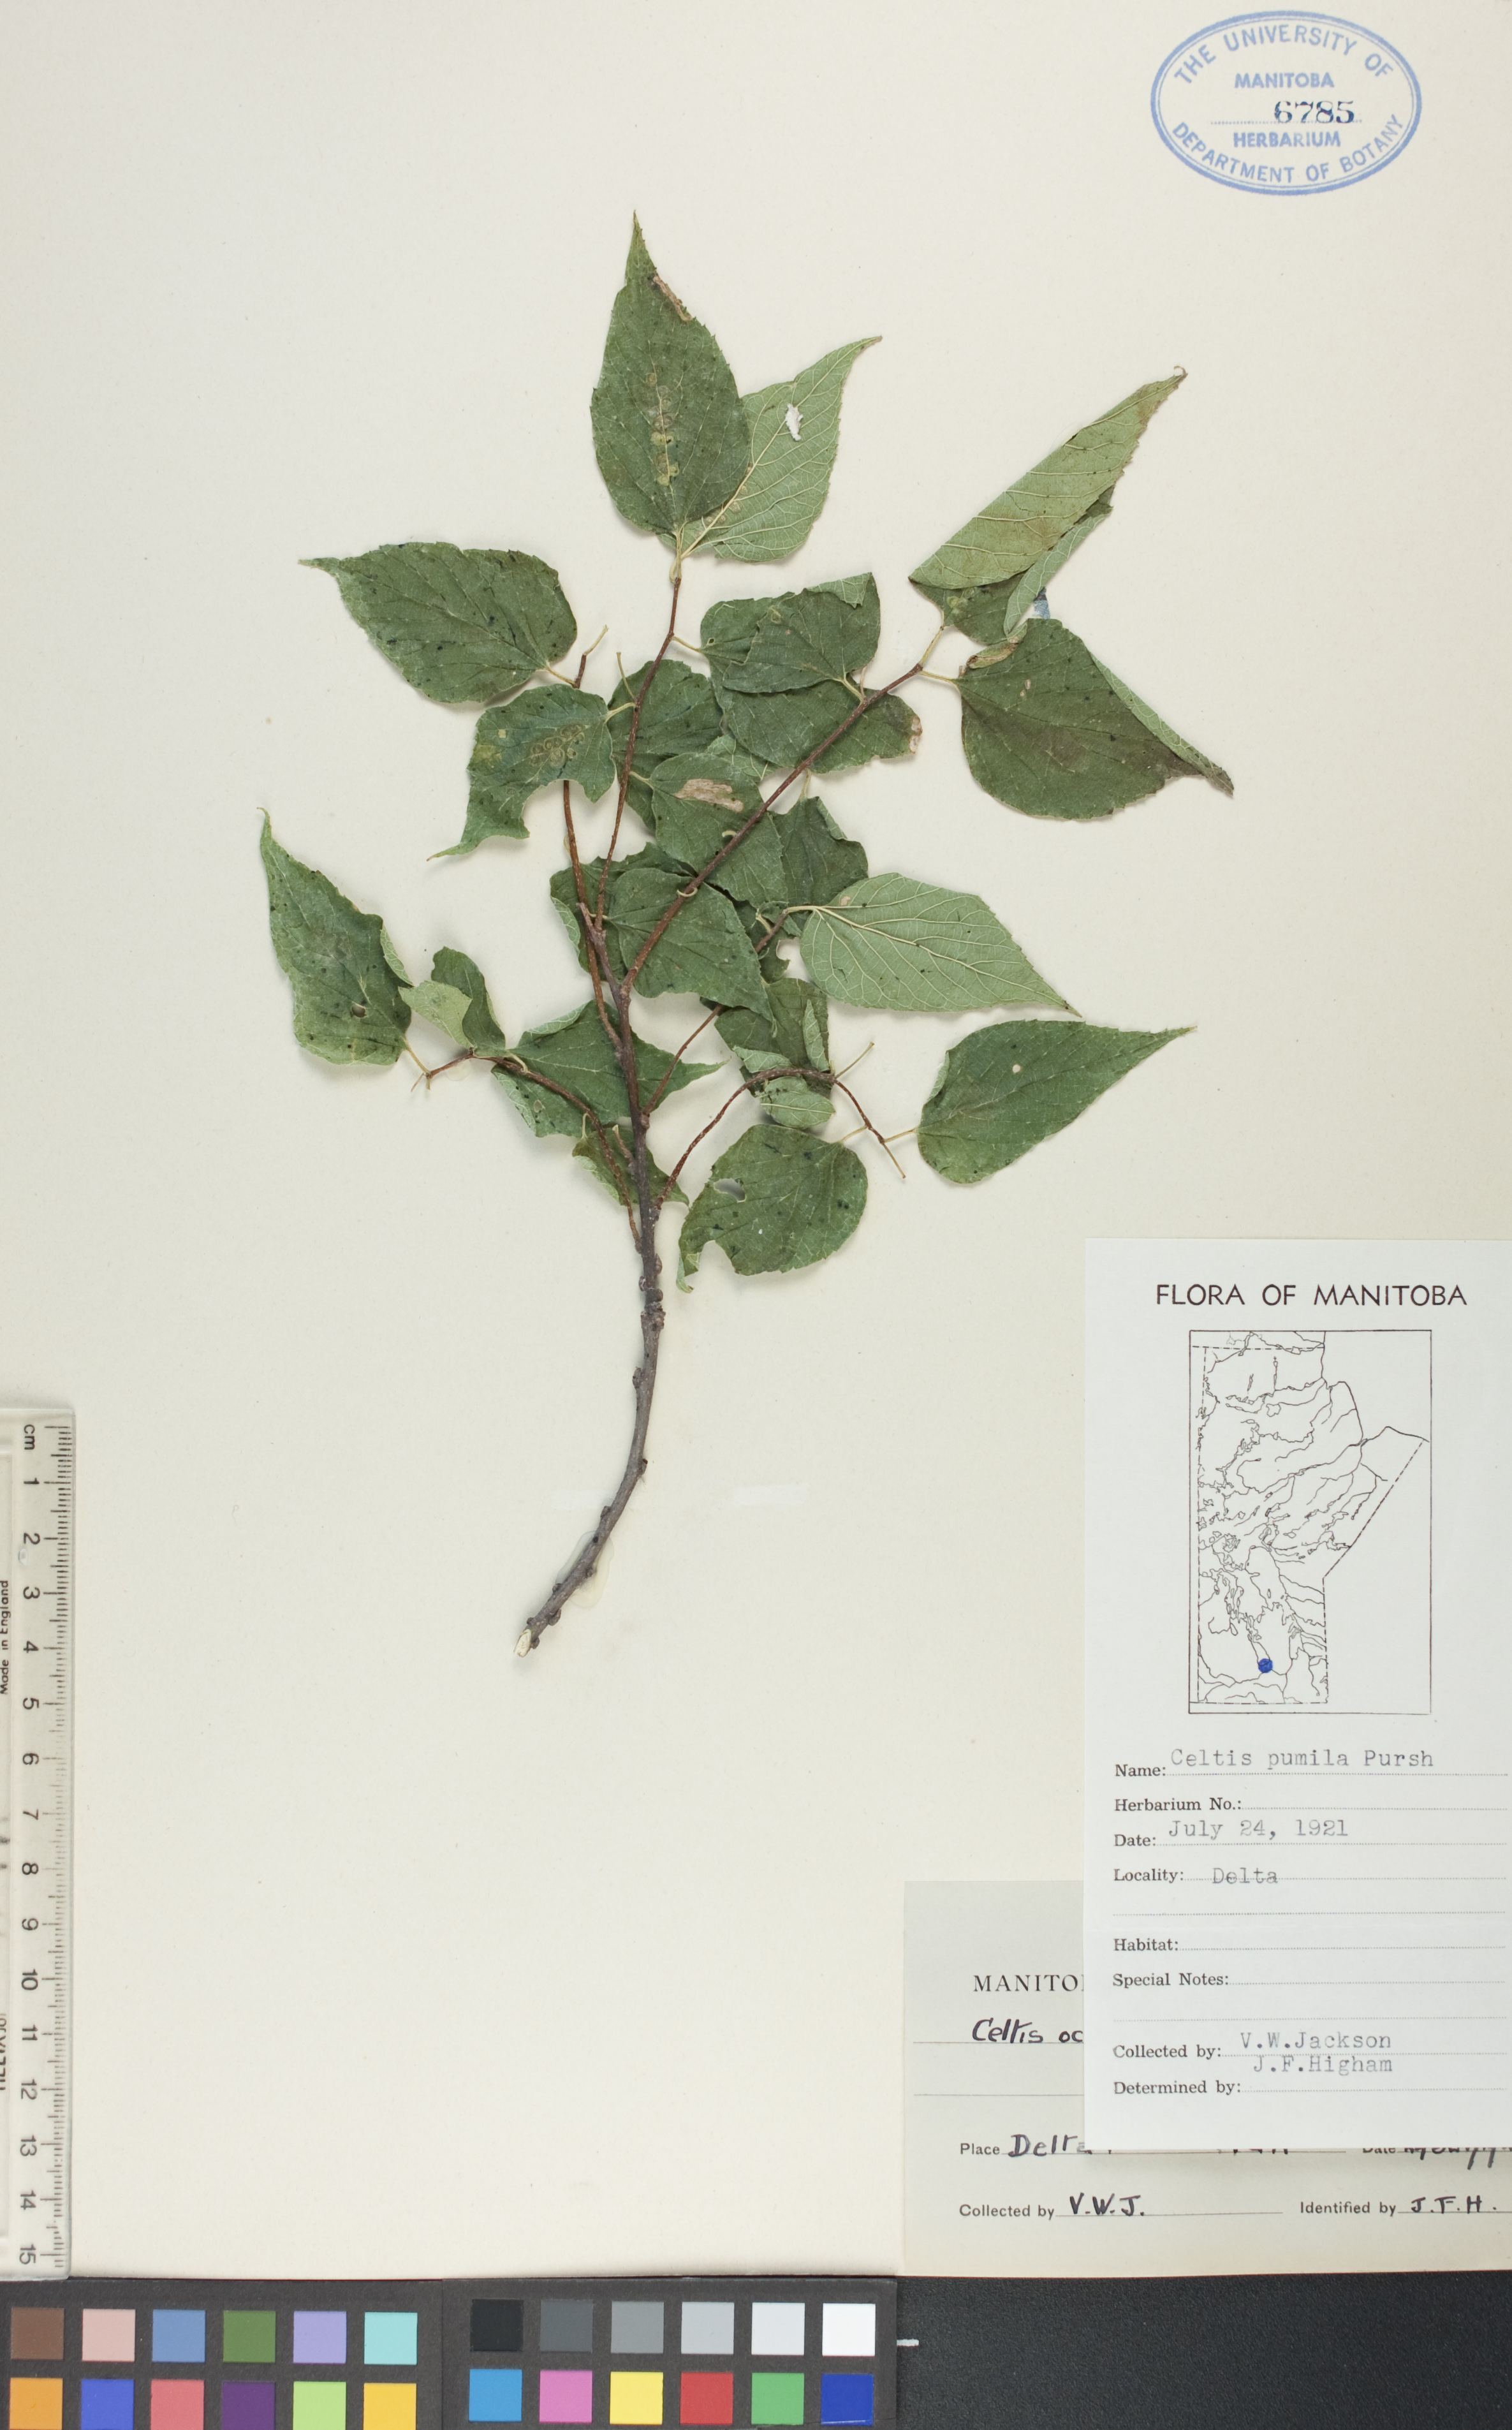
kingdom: Plantae
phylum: Tracheophyta
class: Magnoliopsida
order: Rosales
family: Cannabaceae
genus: Celtis
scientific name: Celtis occidentalis
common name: Common hackberry
